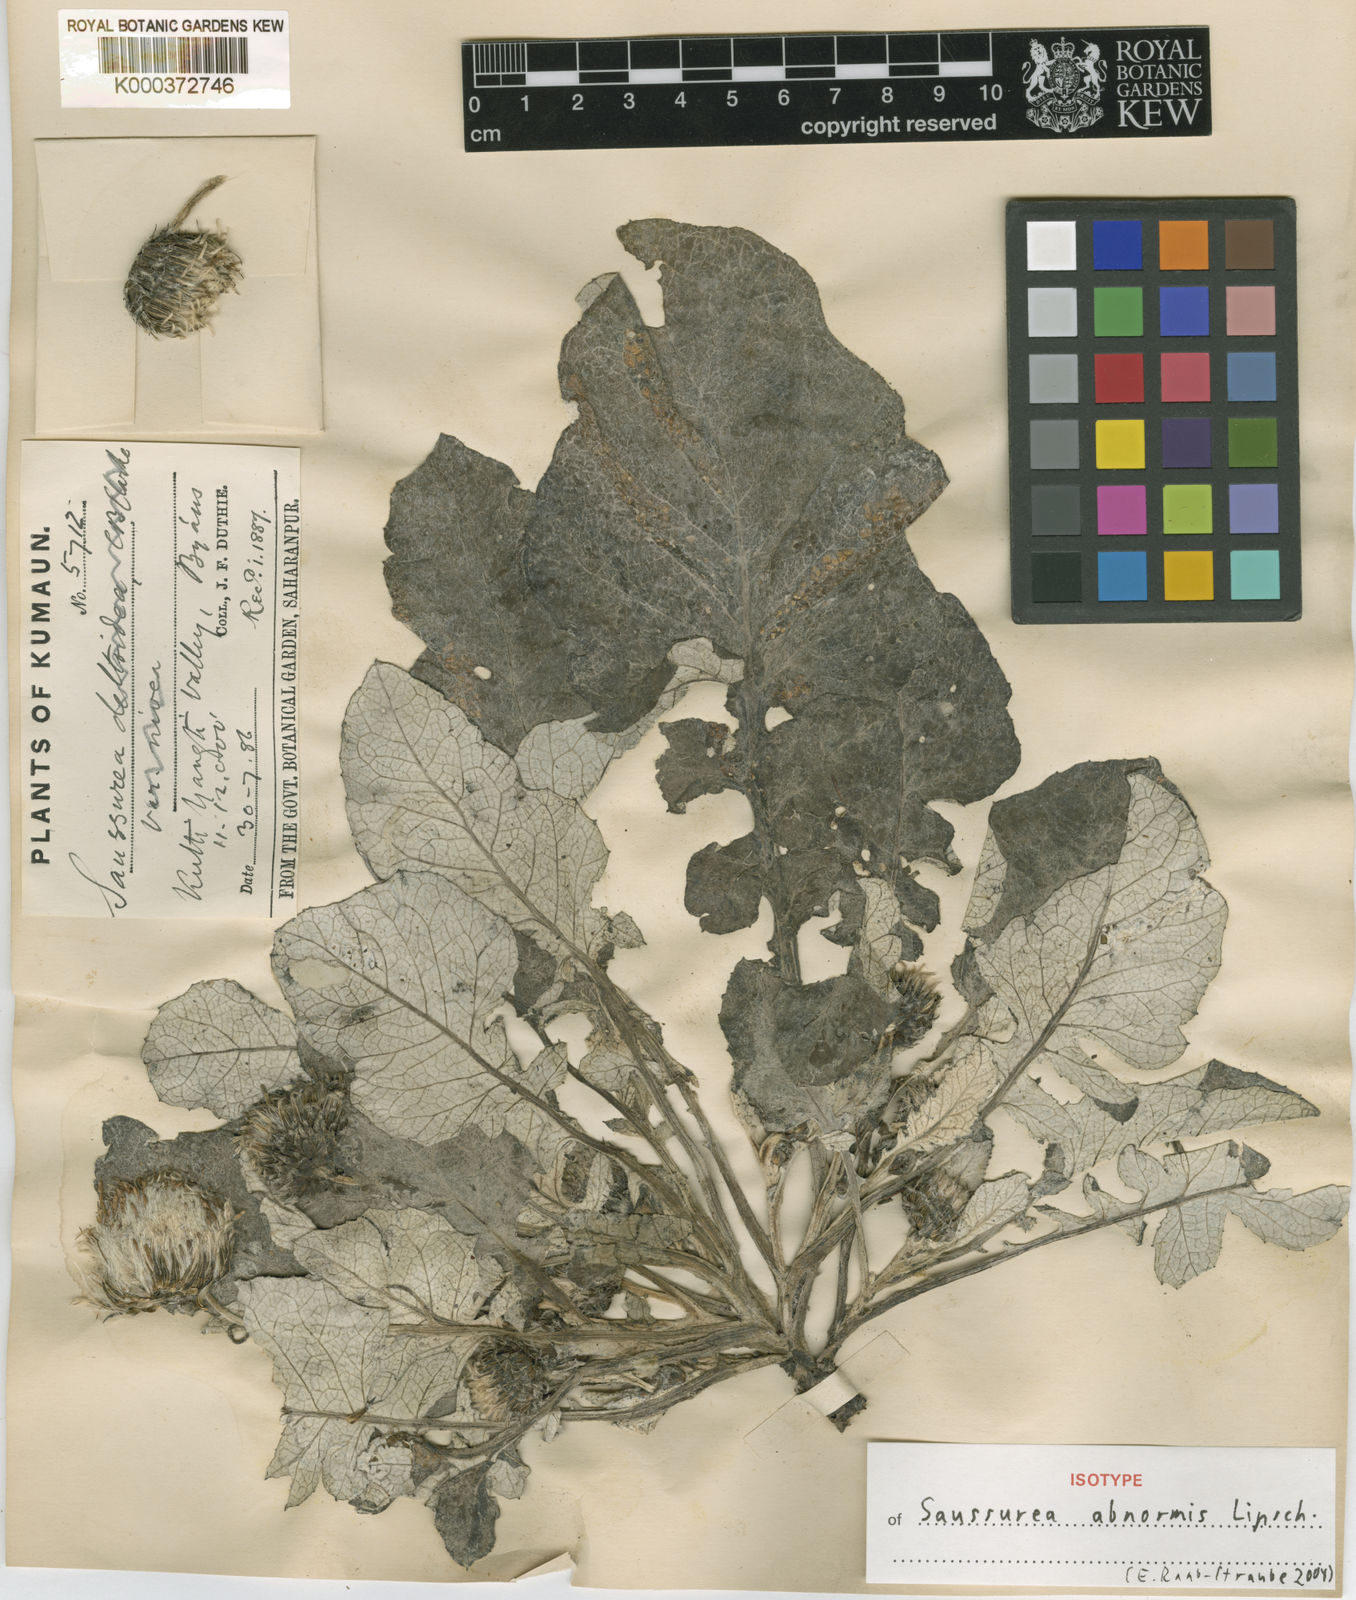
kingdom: Plantae
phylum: Tracheophyta
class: Magnoliopsida
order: Asterales
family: Asteraceae
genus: Saussurea
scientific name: Saussurea abnormis
